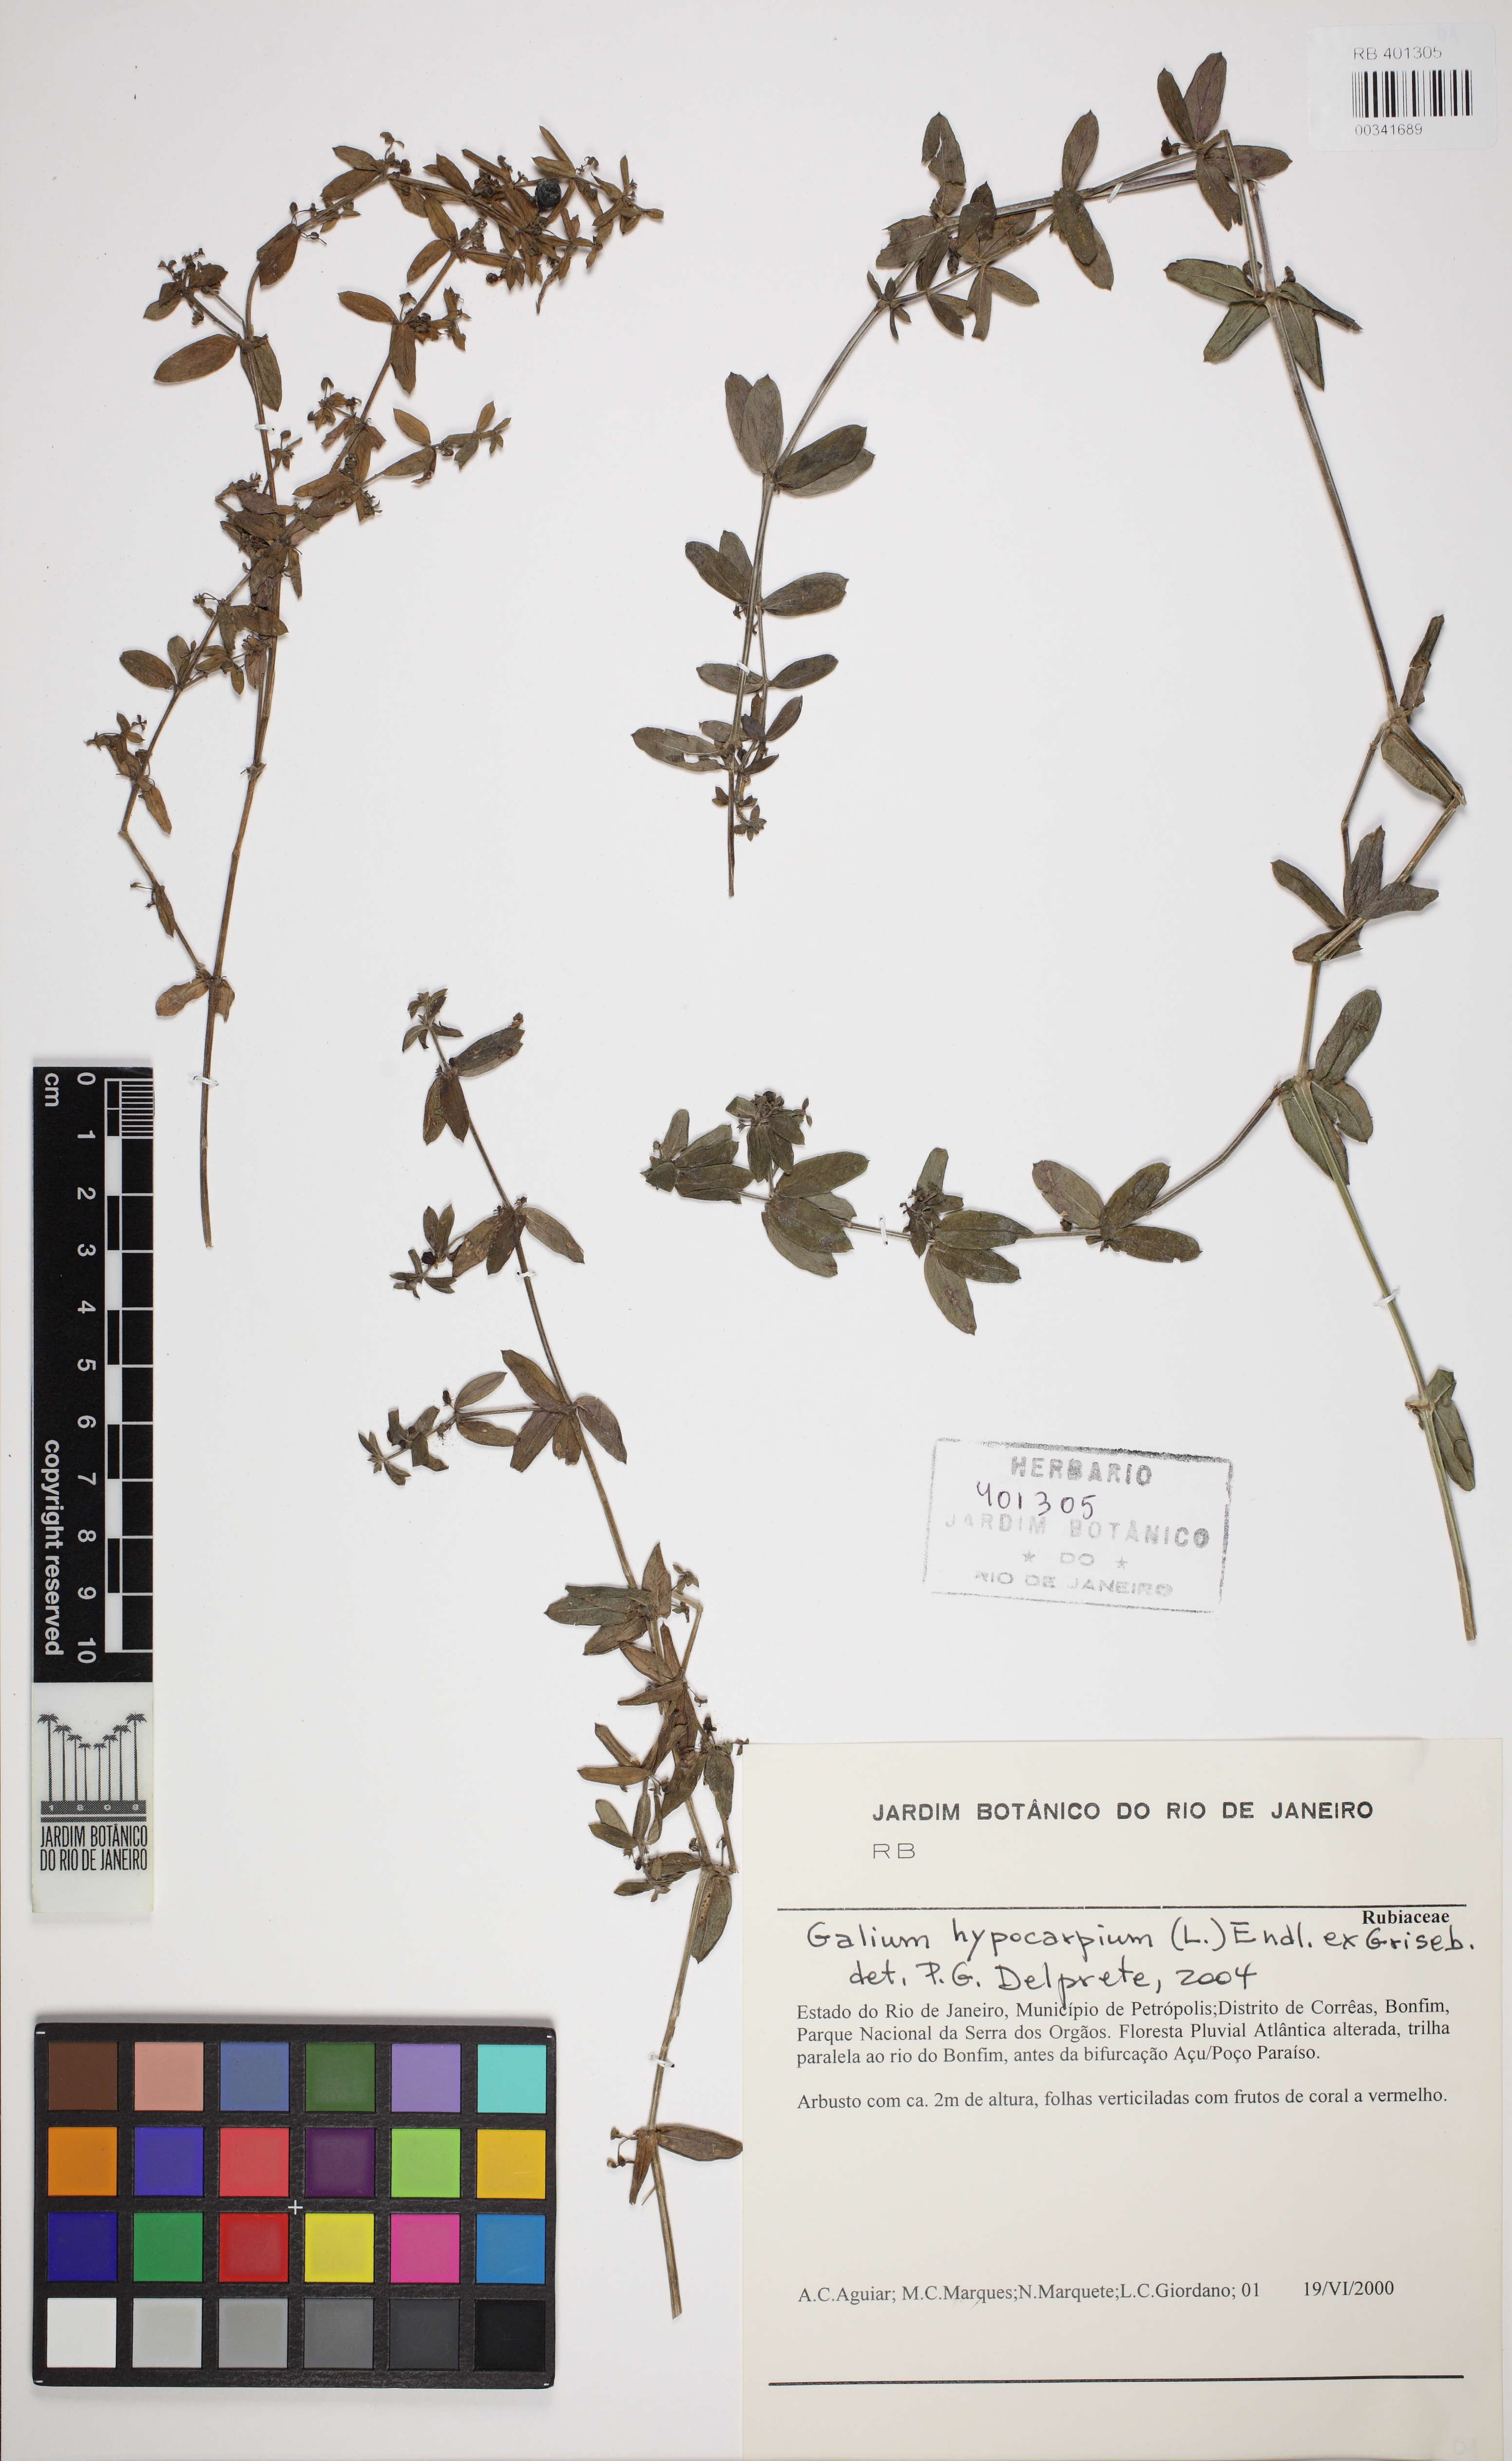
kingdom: Plantae
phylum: Tracheophyta
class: Magnoliopsida
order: Gentianales
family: Rubiaceae
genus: Galium
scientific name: Galium hypocarpium
